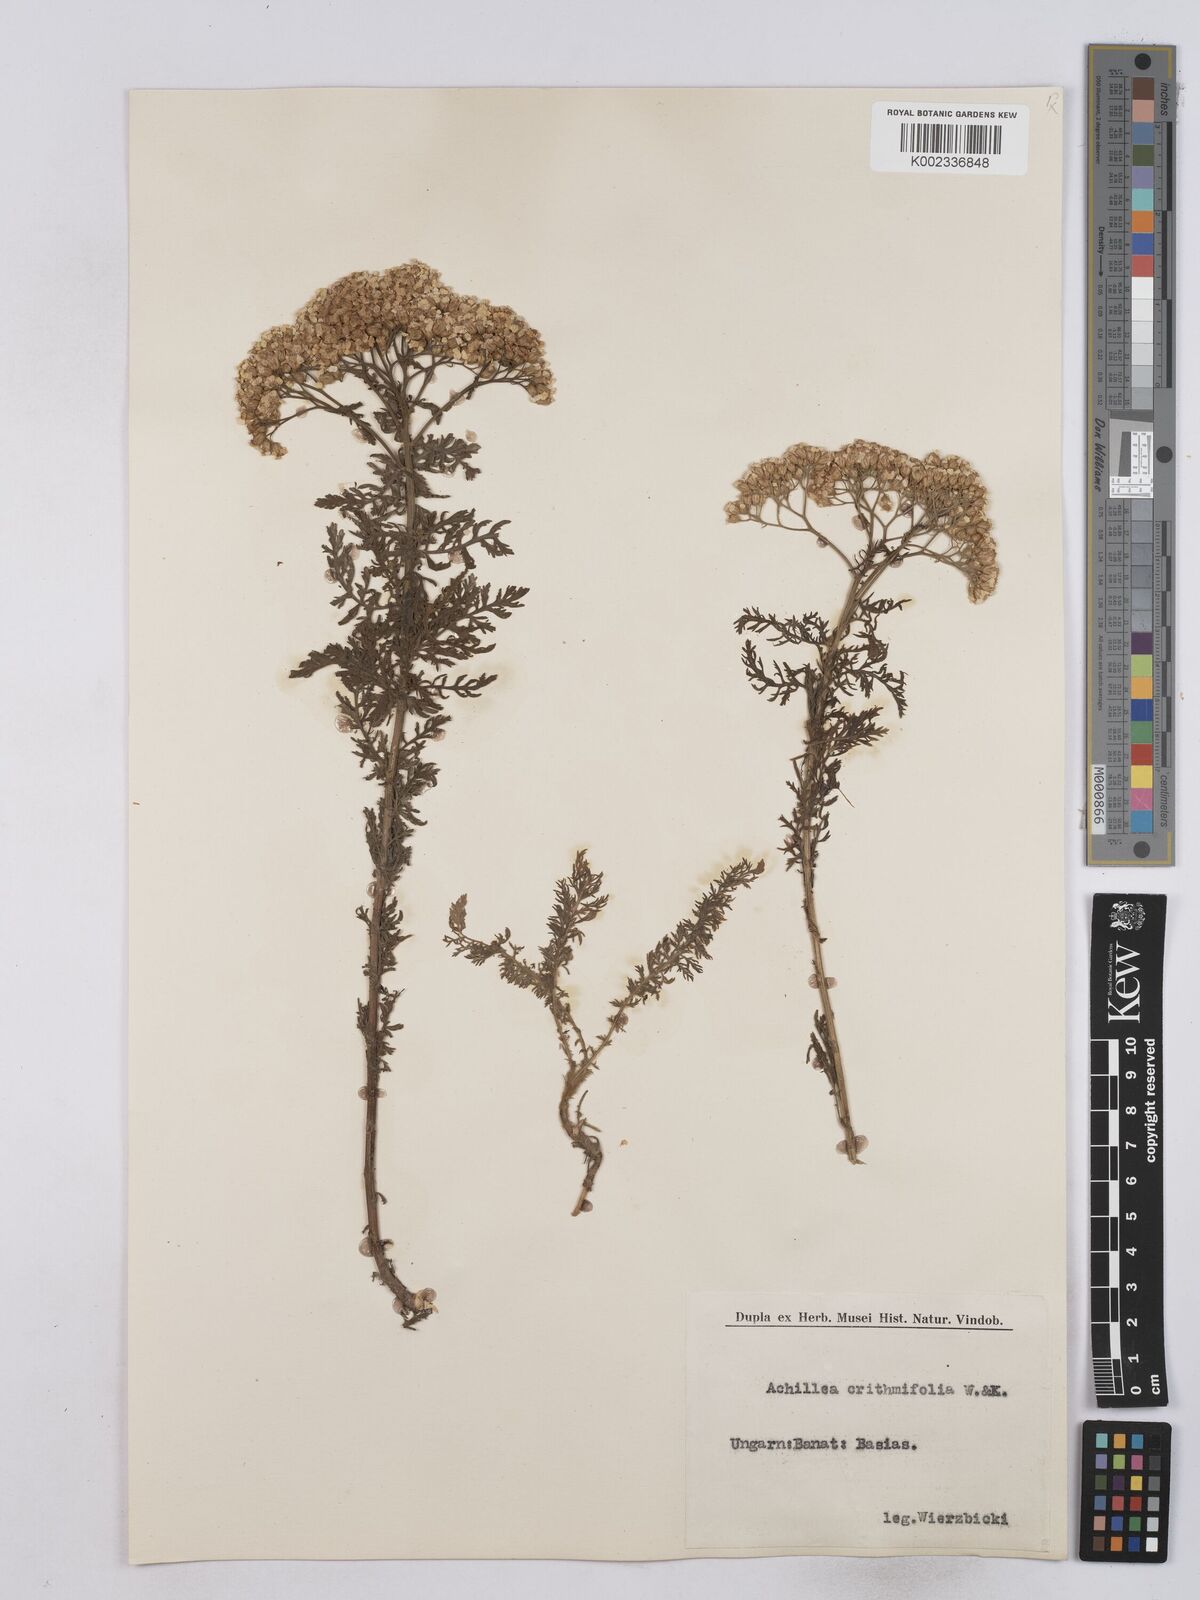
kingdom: Plantae
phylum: Tracheophyta
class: Magnoliopsida
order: Asterales
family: Asteraceae
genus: Achillea
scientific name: Achillea crithmifolia
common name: Yarrow
